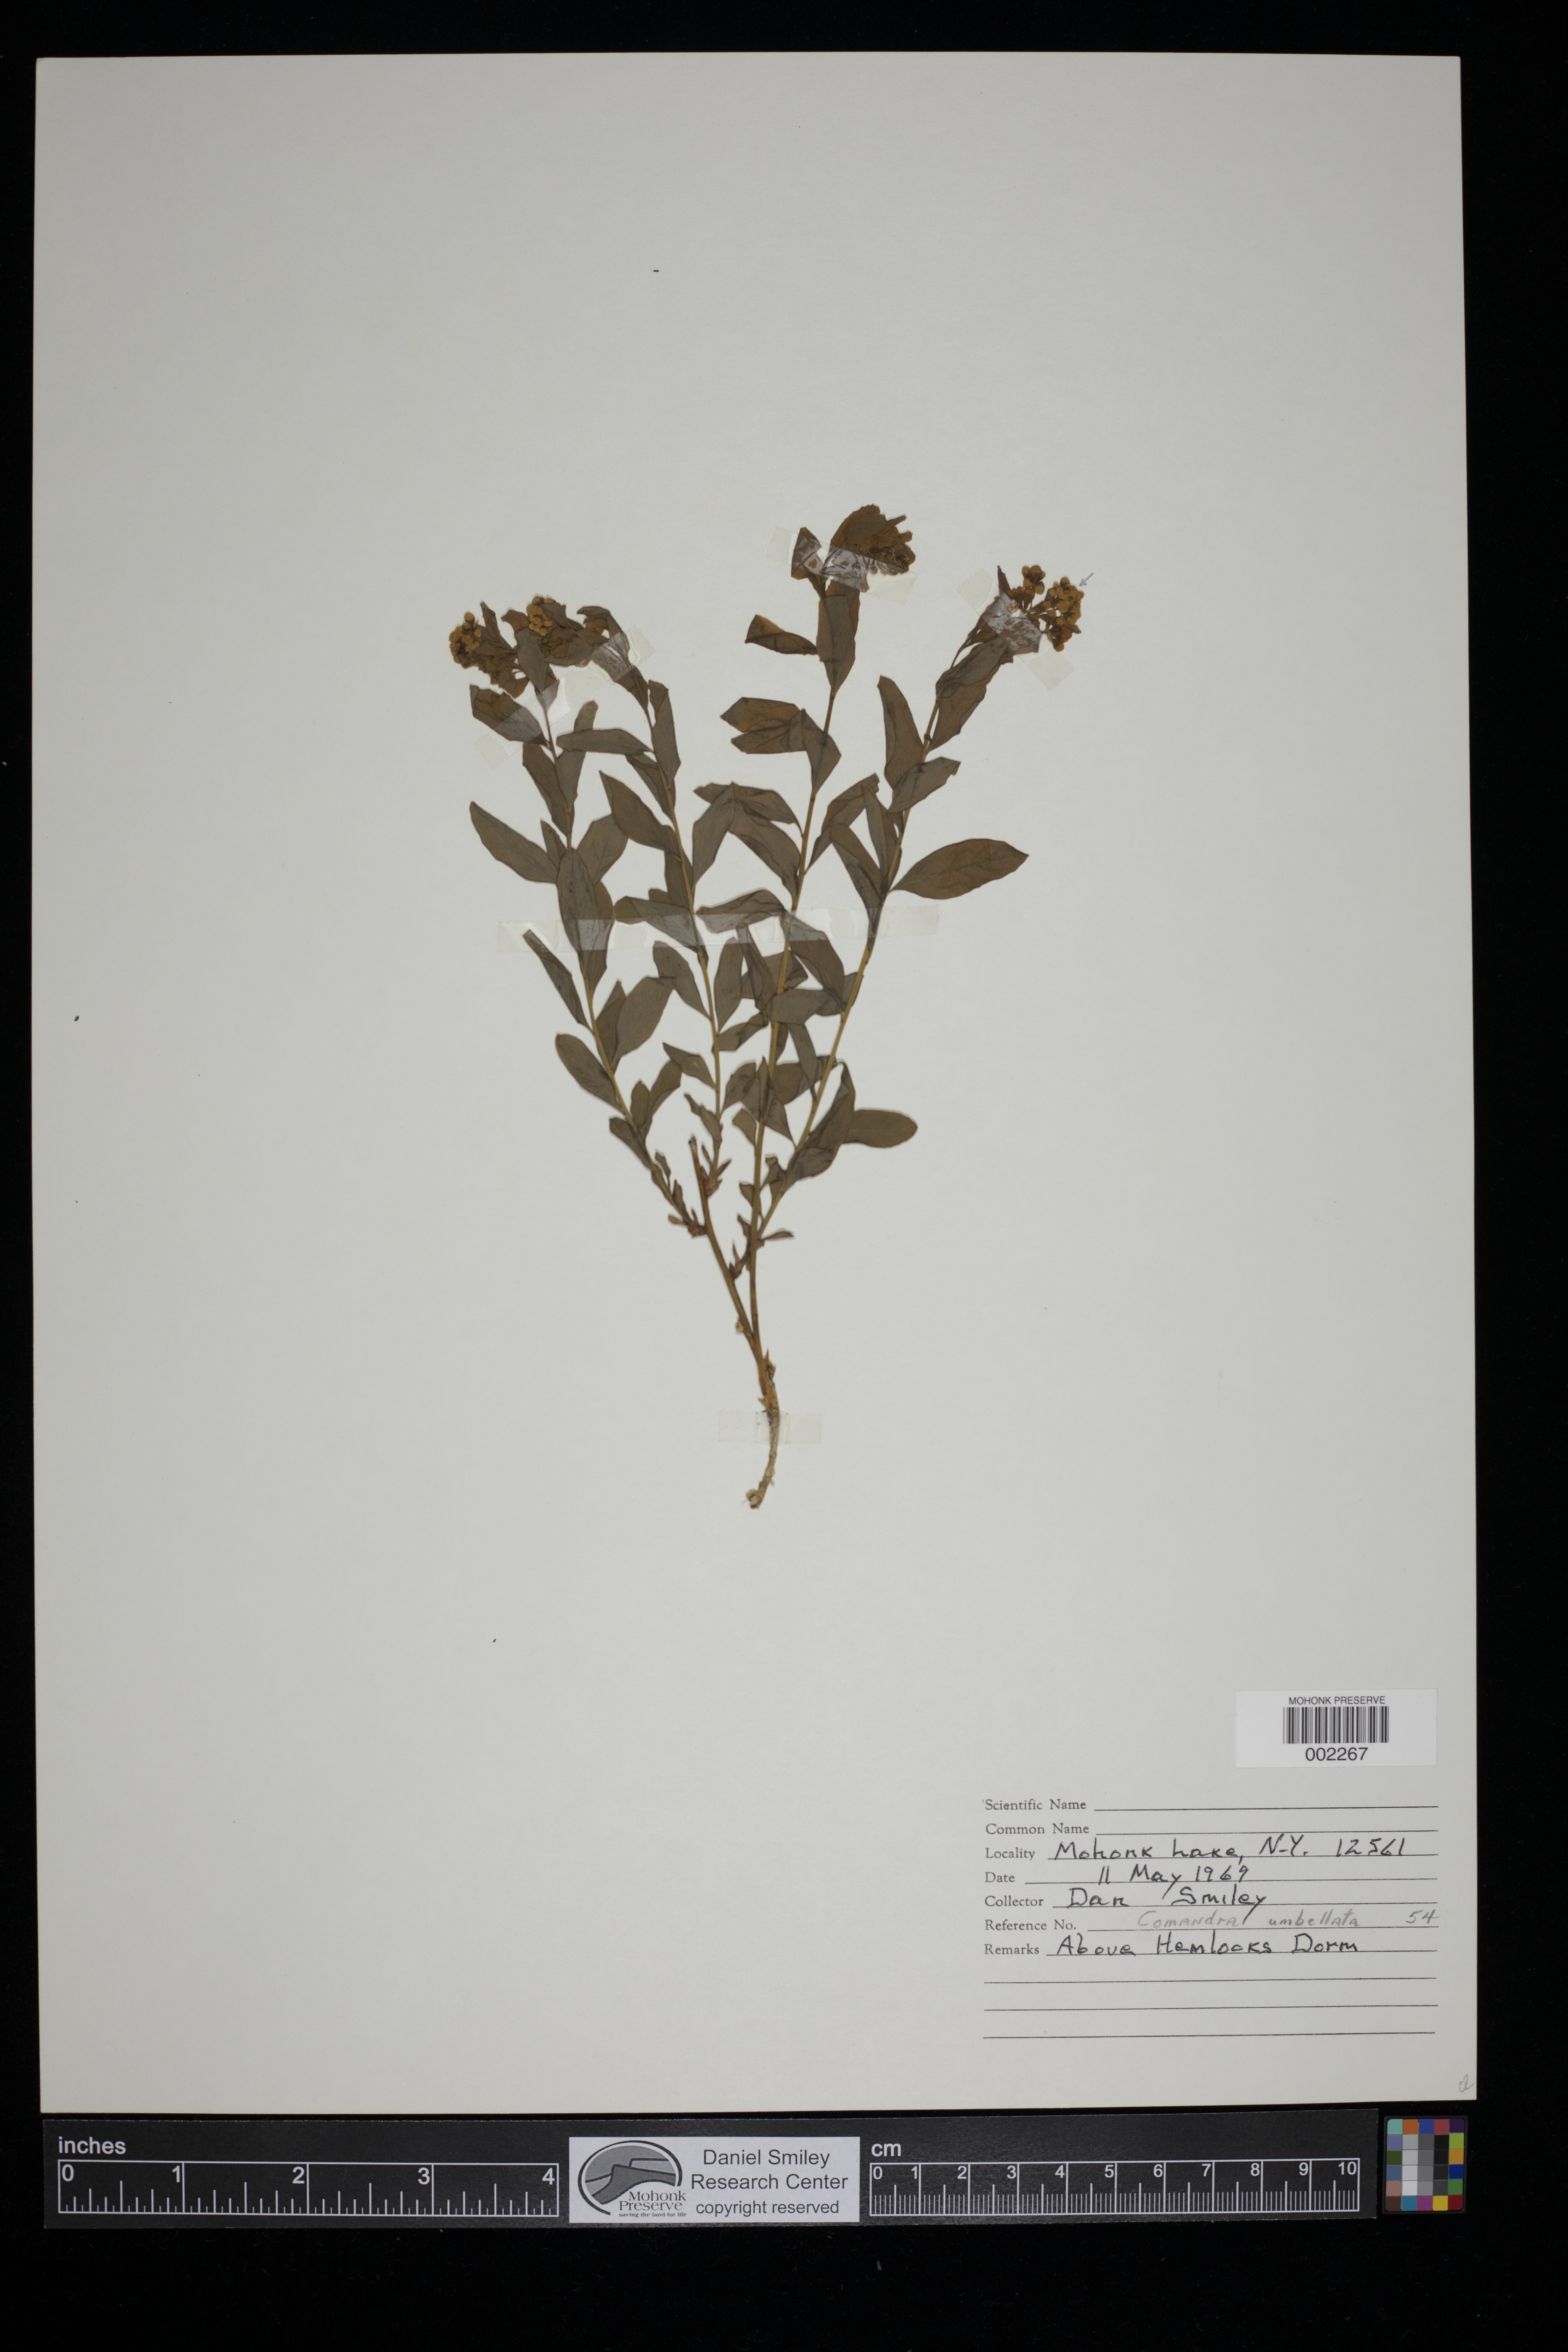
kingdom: Plantae
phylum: Tracheophyta
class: Magnoliopsida
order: Santalales
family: Comandraceae
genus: Comandra
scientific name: Comandra umbellata
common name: Bastard toadflax
